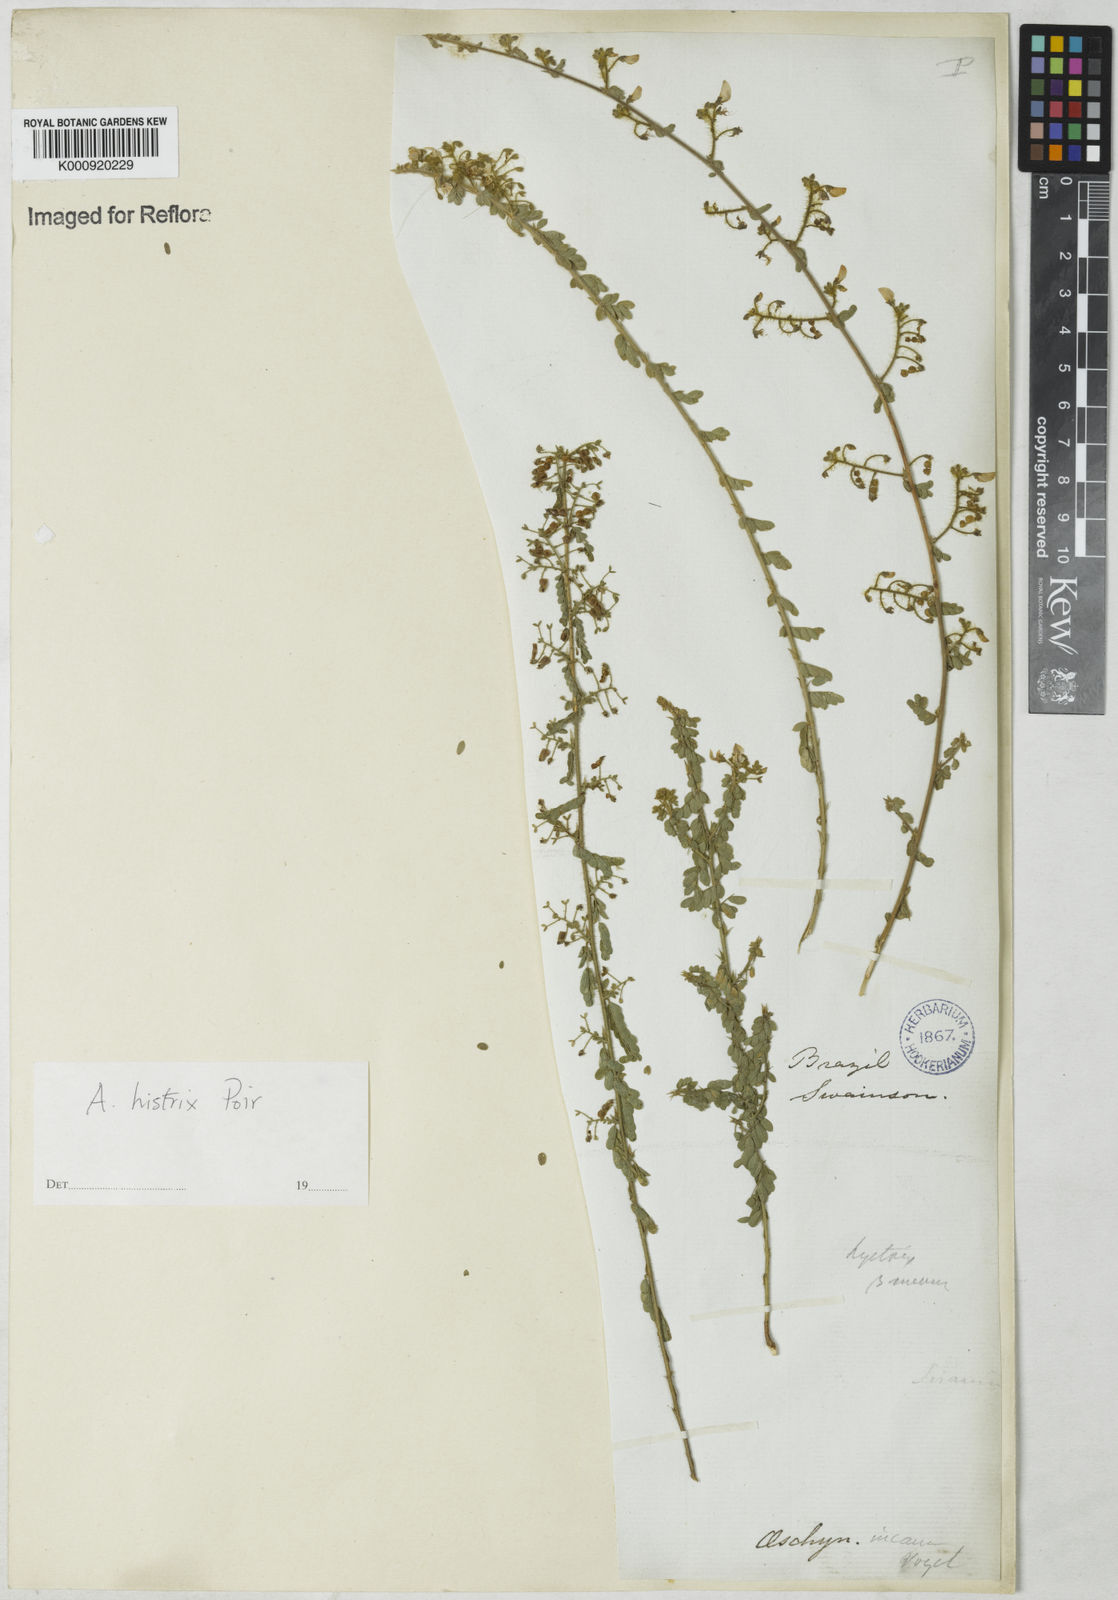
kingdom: Plantae
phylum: Tracheophyta
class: Magnoliopsida
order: Fabales
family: Fabaceae
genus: Ctenodon
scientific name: Ctenodon histrix
